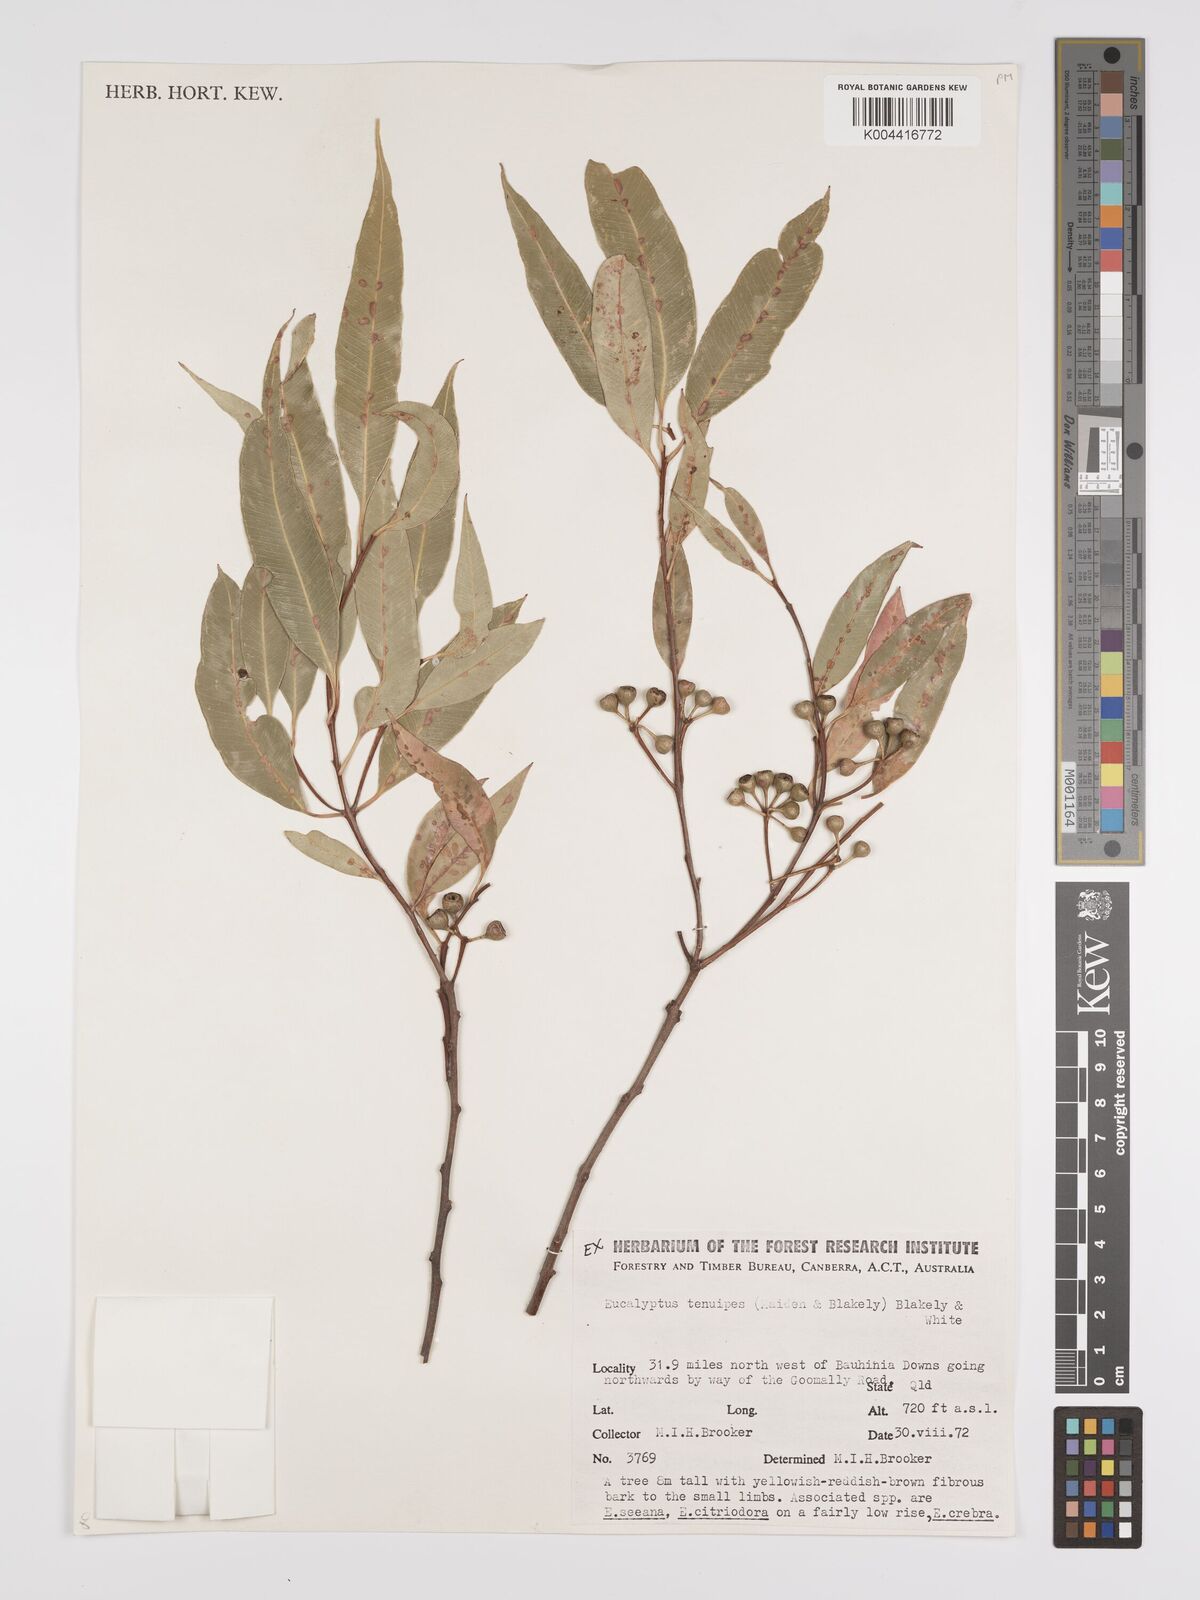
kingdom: Plantae
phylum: Tracheophyta
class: Magnoliopsida
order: Myrtales
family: Myrtaceae
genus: Eucalyptus
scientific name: Eucalyptus tenuipes
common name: Narrow-leaved white mahogany
